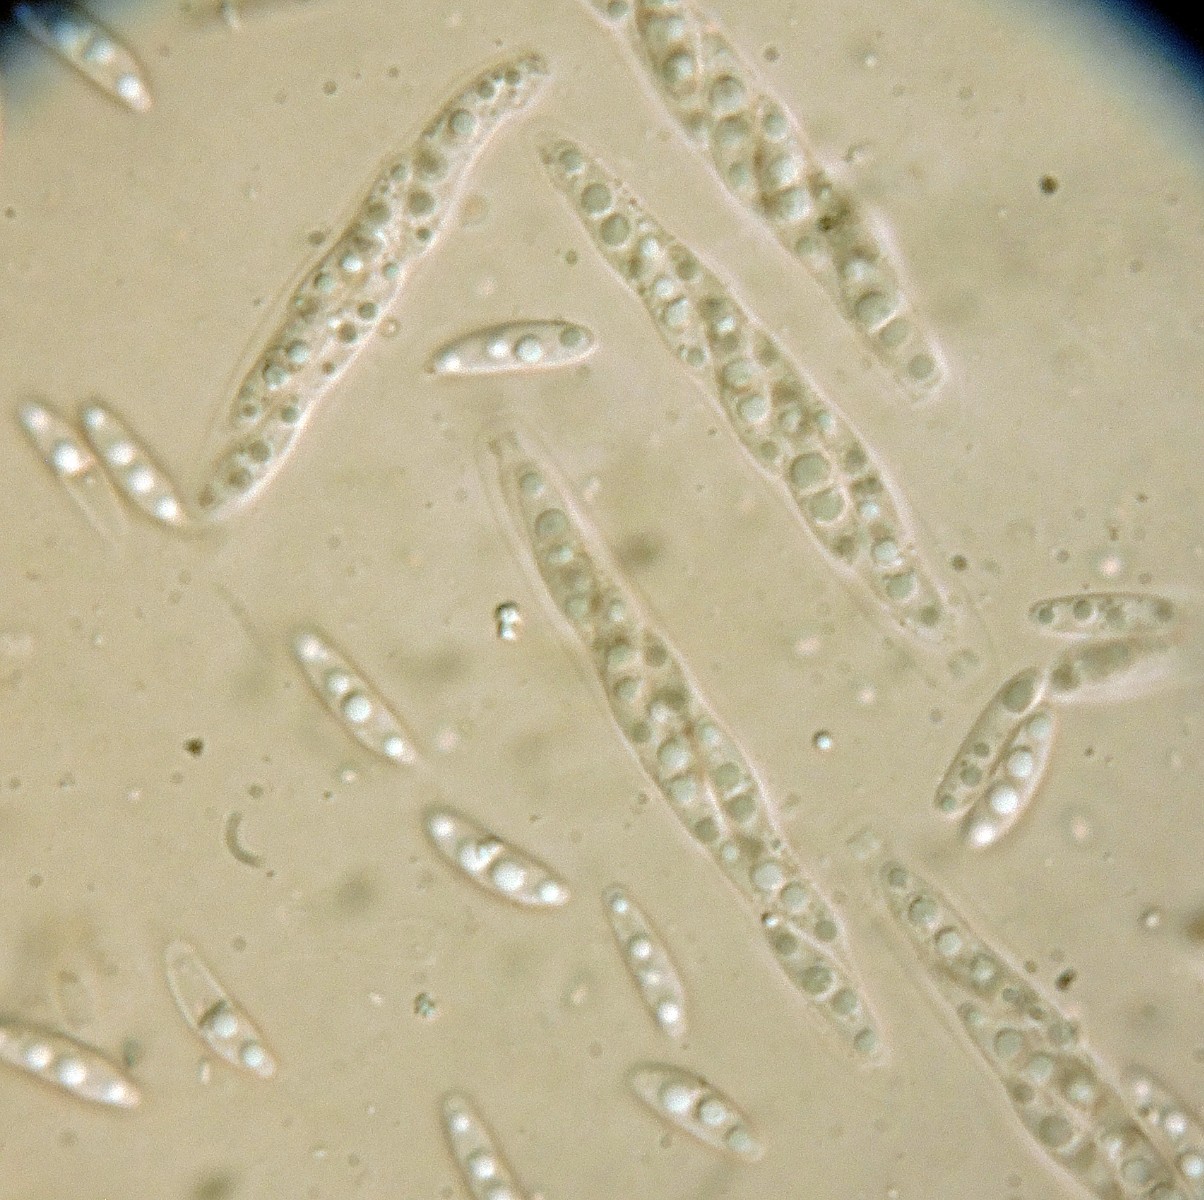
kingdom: Fungi
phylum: Ascomycota
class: Sordariomycetes
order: Diaporthales
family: Diaporthaceae
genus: Diaporthe
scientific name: Diaporthe sarmenticia
